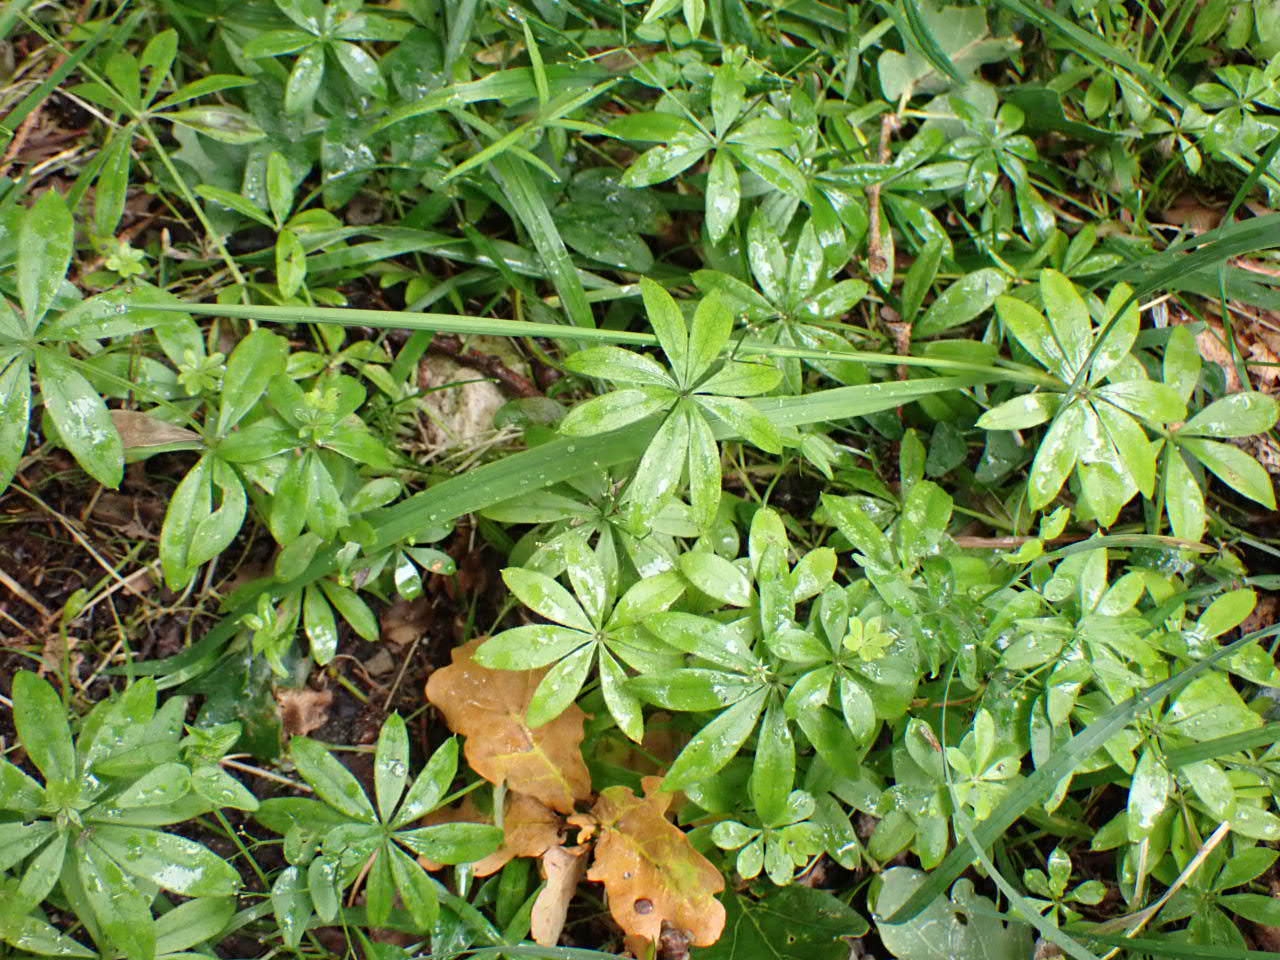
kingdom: Plantae
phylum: Tracheophyta
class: Magnoliopsida
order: Gentianales
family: Rubiaceae
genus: Galium
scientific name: Galium odoratum
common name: Skovmærke
